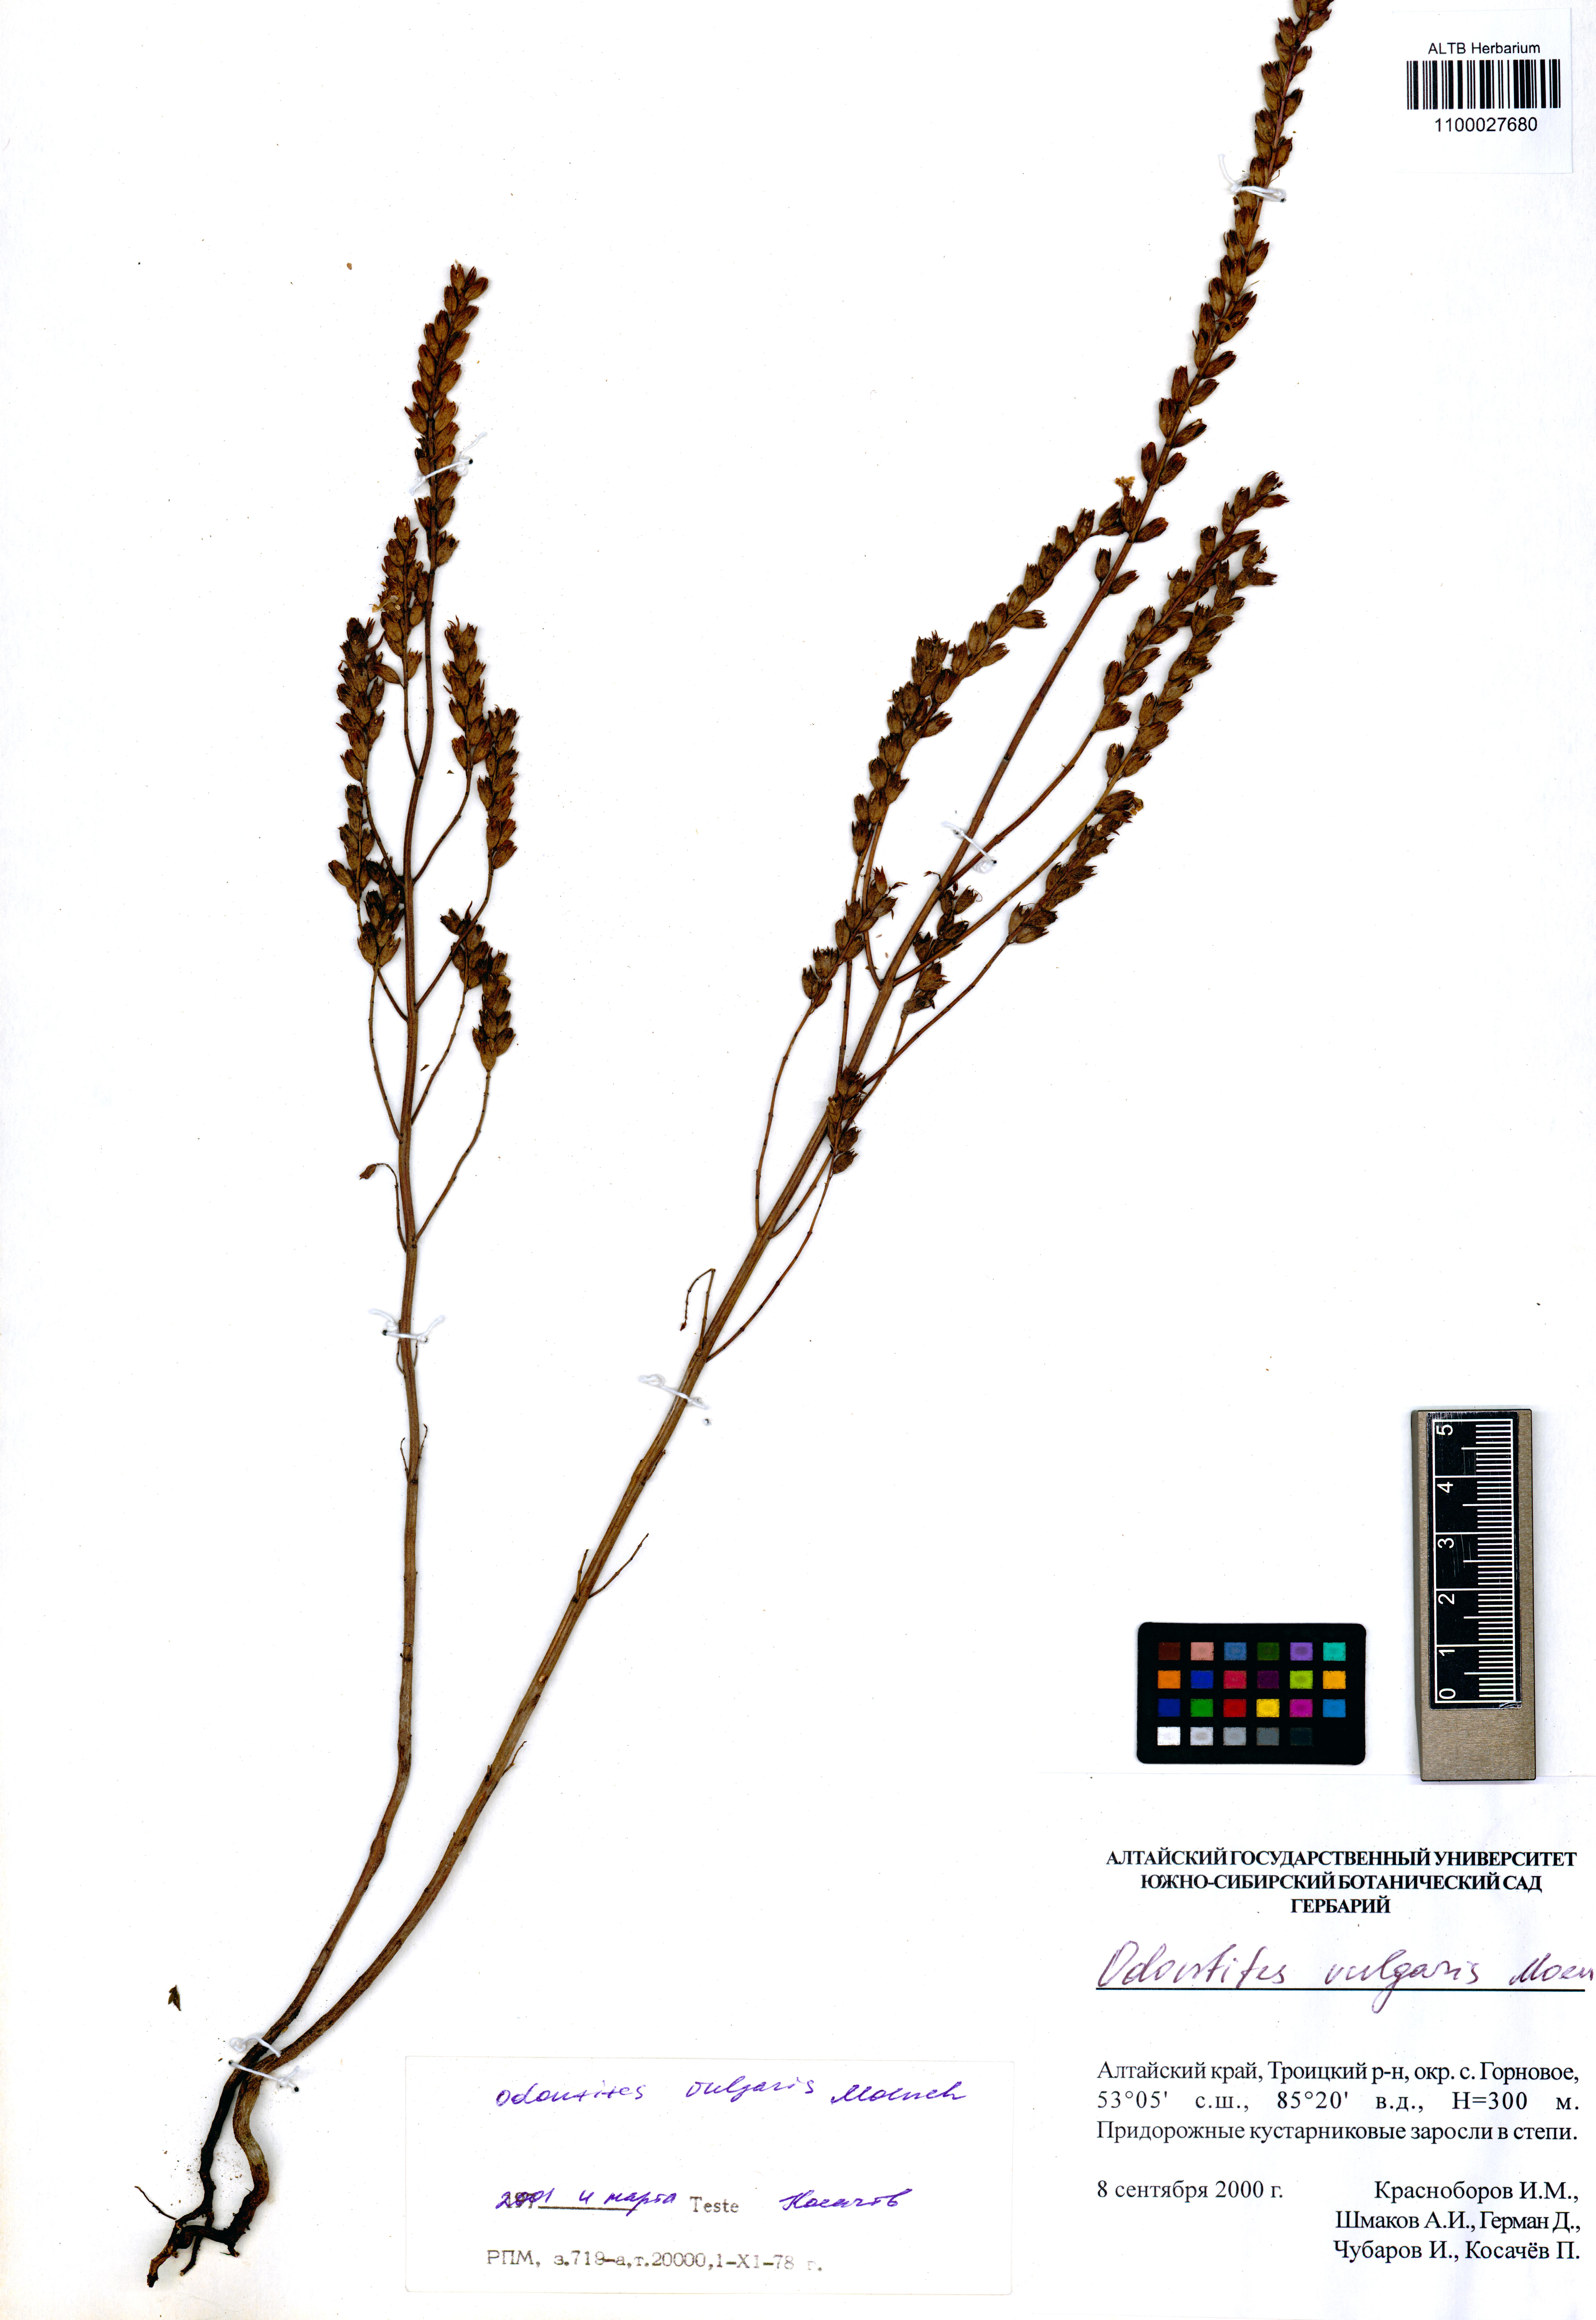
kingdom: Plantae
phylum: Tracheophyta
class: Magnoliopsida
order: Lamiales
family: Orobanchaceae
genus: Odontites
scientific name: Odontites vulgaris
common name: Broomrape
